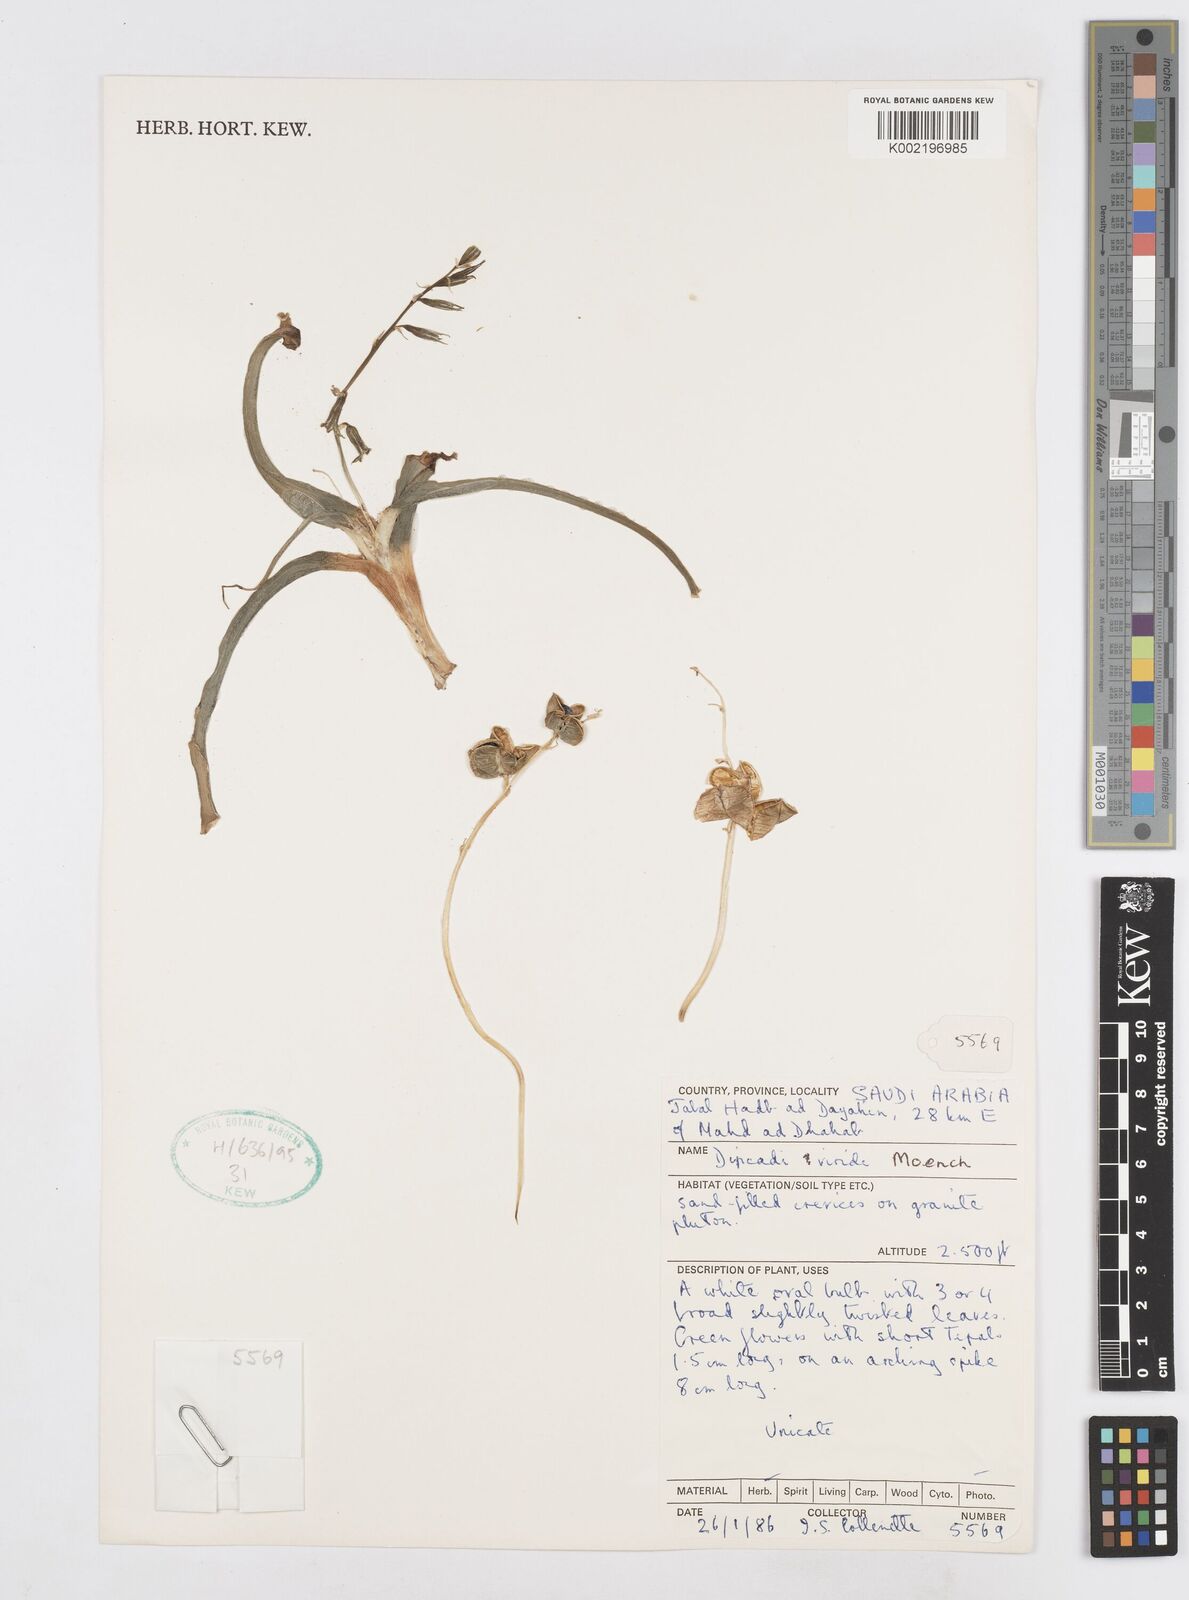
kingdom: Plantae
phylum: Tracheophyta
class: Liliopsida
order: Asparagales
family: Asparagaceae
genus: Dipcadi
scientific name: Dipcadi viride
